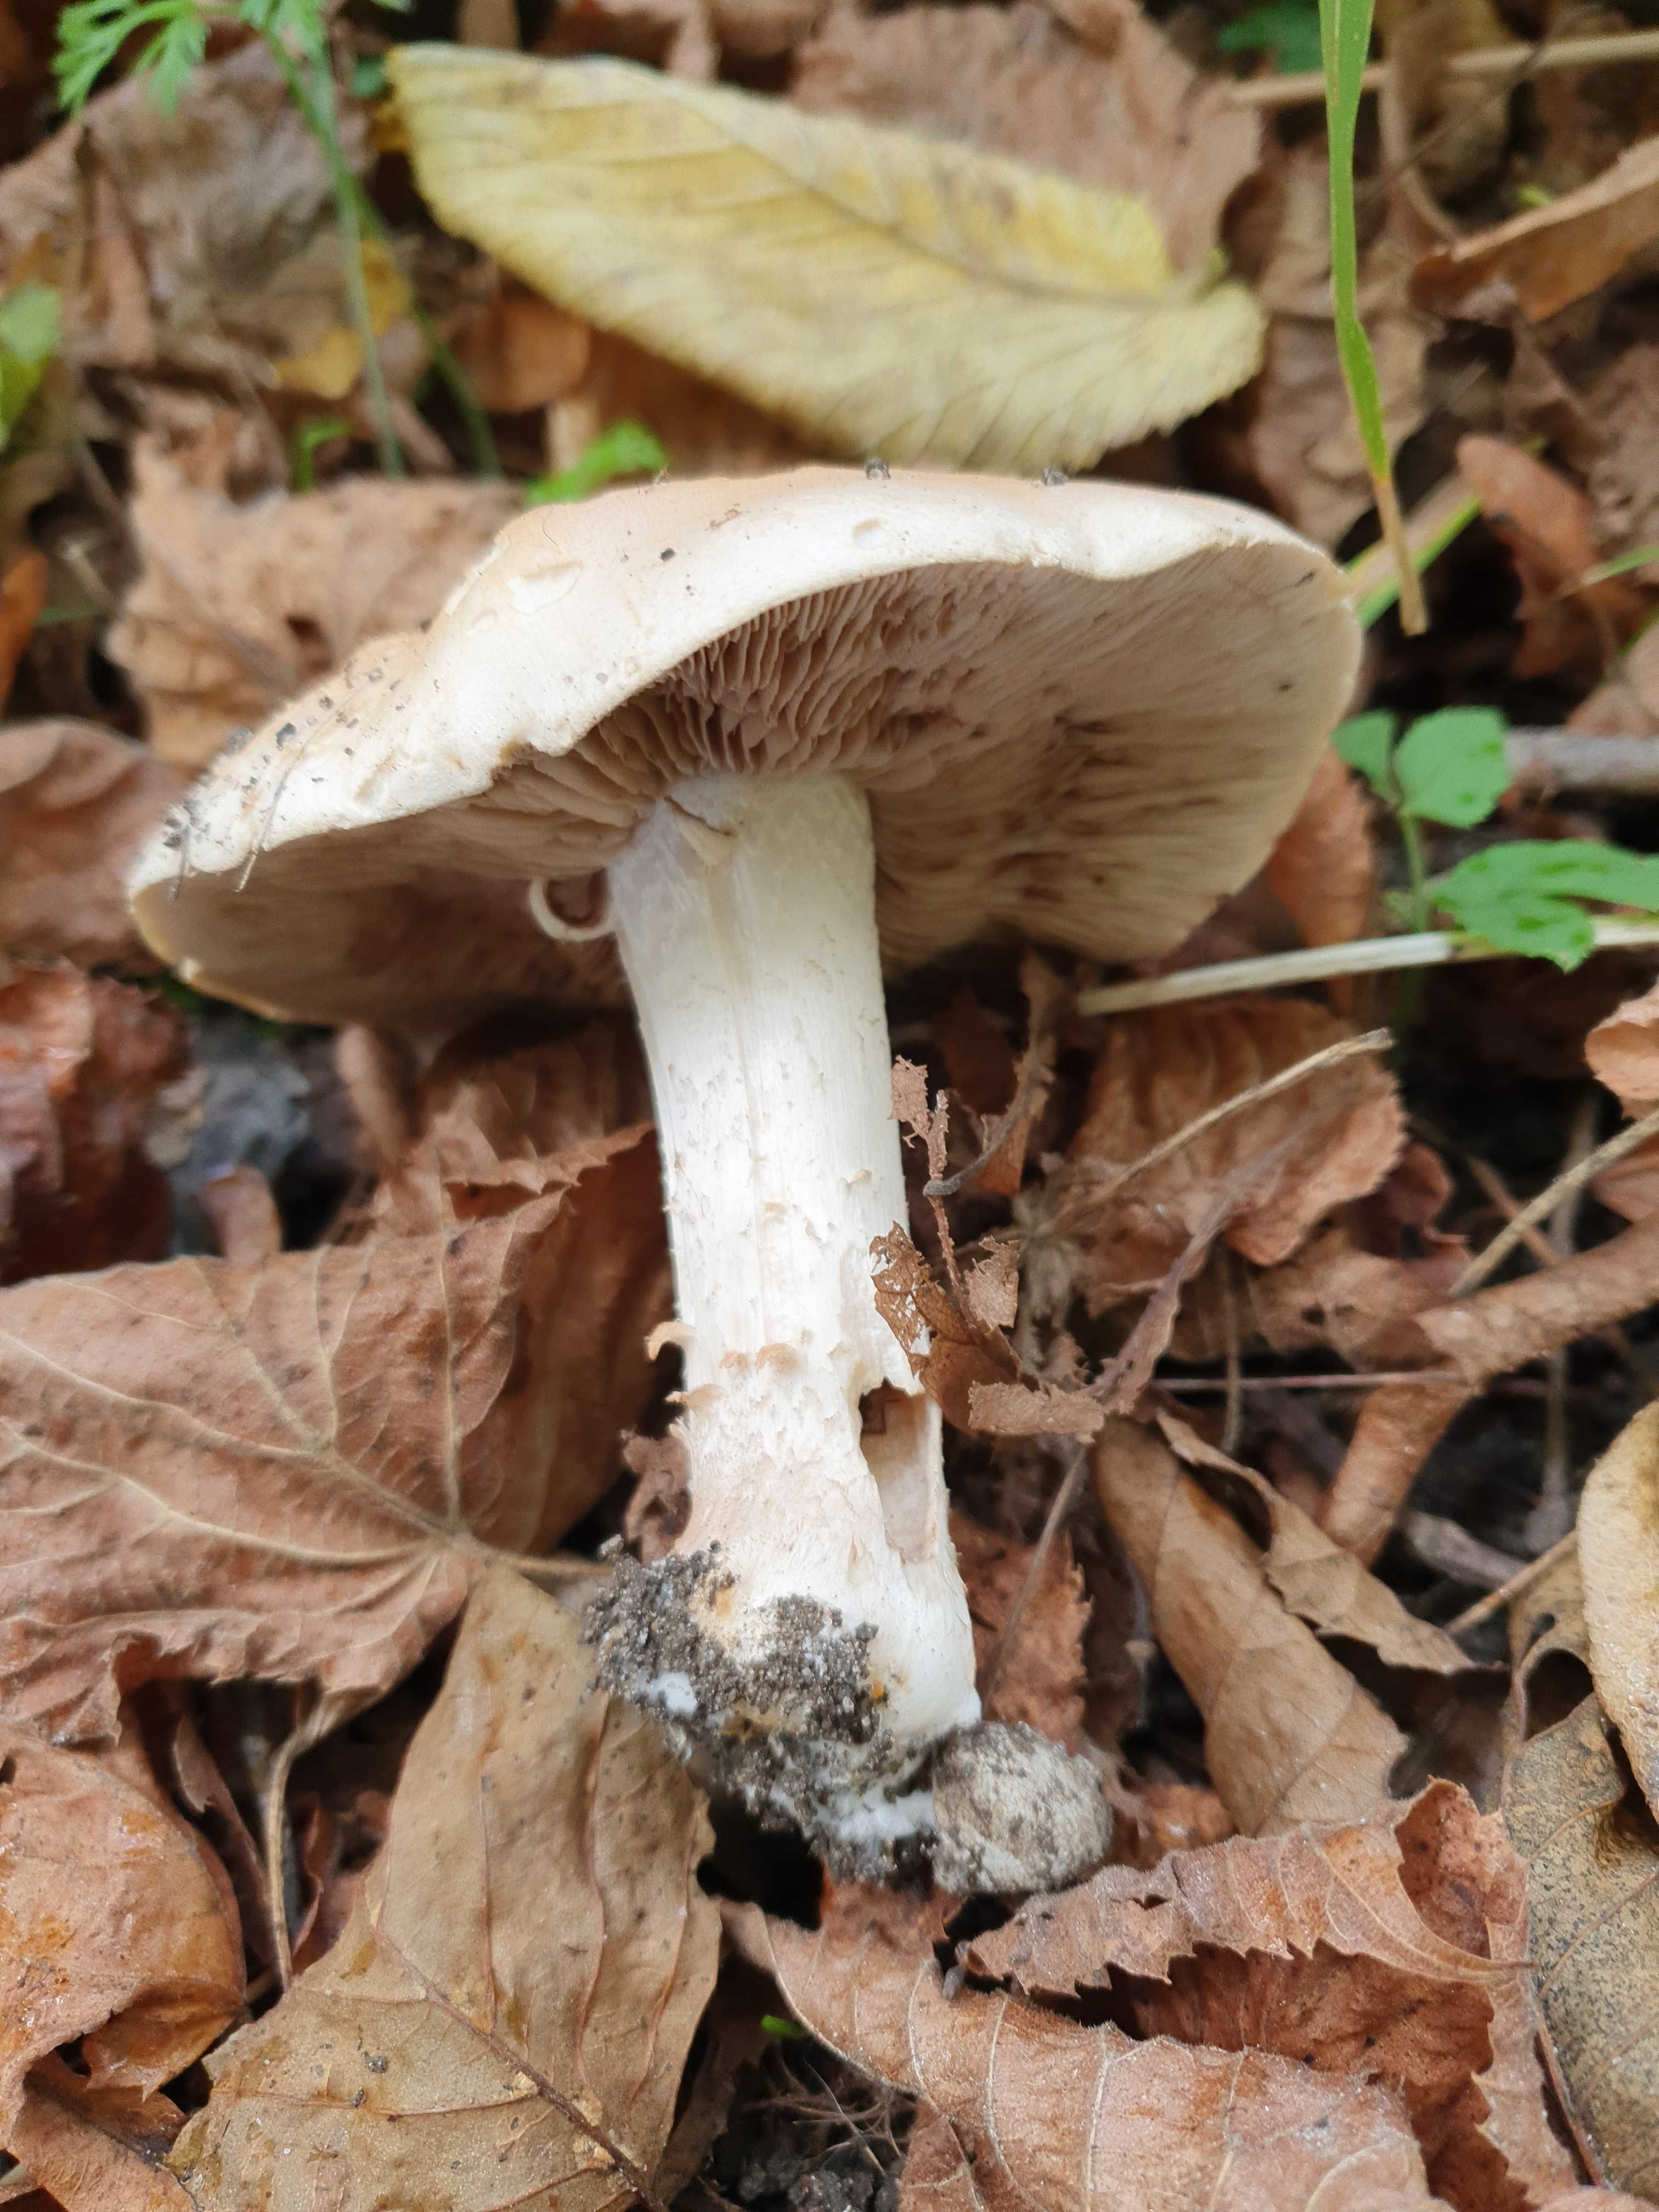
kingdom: Fungi
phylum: Basidiomycota
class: Agaricomycetes
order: Agaricales
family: Hymenogastraceae
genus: Hebeloma
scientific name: Hebeloma sinapizans
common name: ræddike-tåreblad
